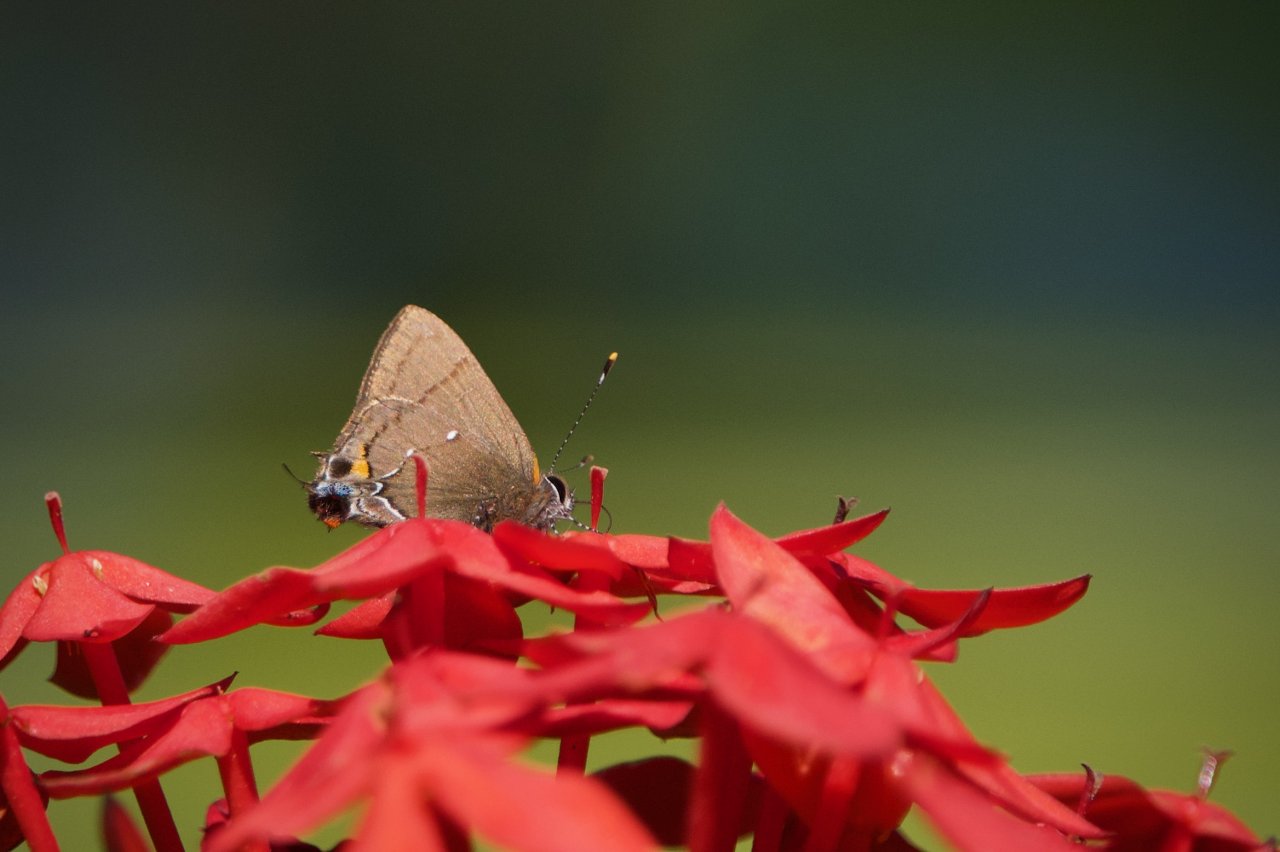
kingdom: Animalia
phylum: Arthropoda
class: Insecta
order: Lepidoptera
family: Lycaenidae
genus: Thecla
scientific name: Thecla angelia
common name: Fulvous Hairstreak
